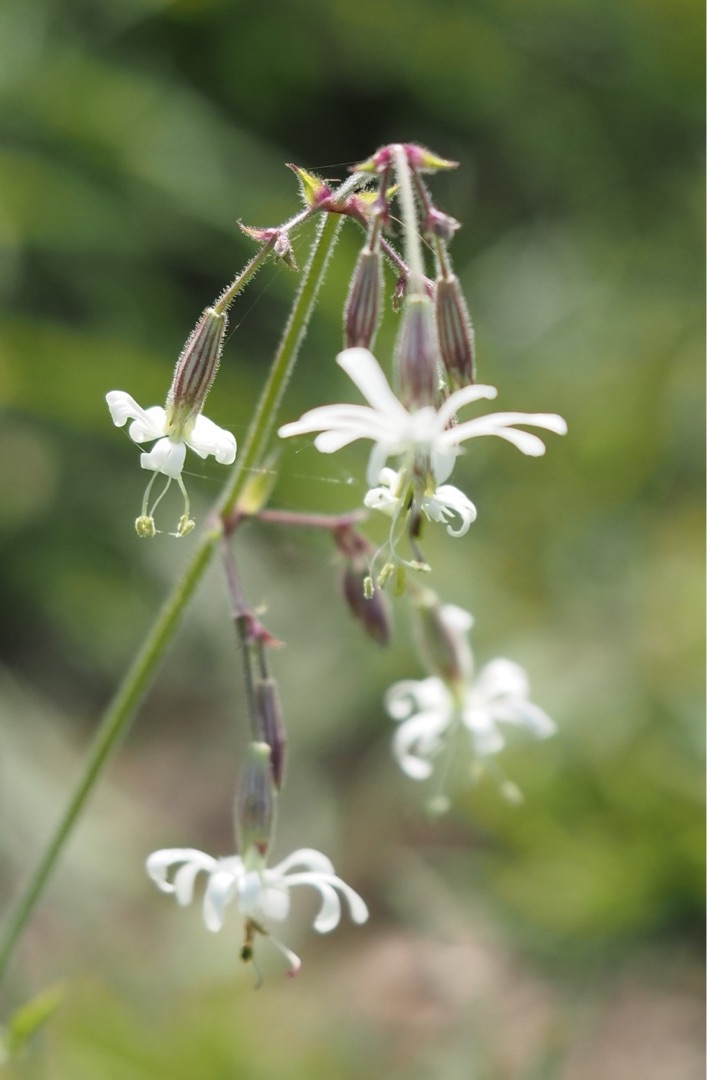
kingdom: Plantae
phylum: Tracheophyta
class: Magnoliopsida
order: Caryophyllales
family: Caryophyllaceae
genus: Silene
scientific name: Silene nutans
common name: Nikkende limurt
